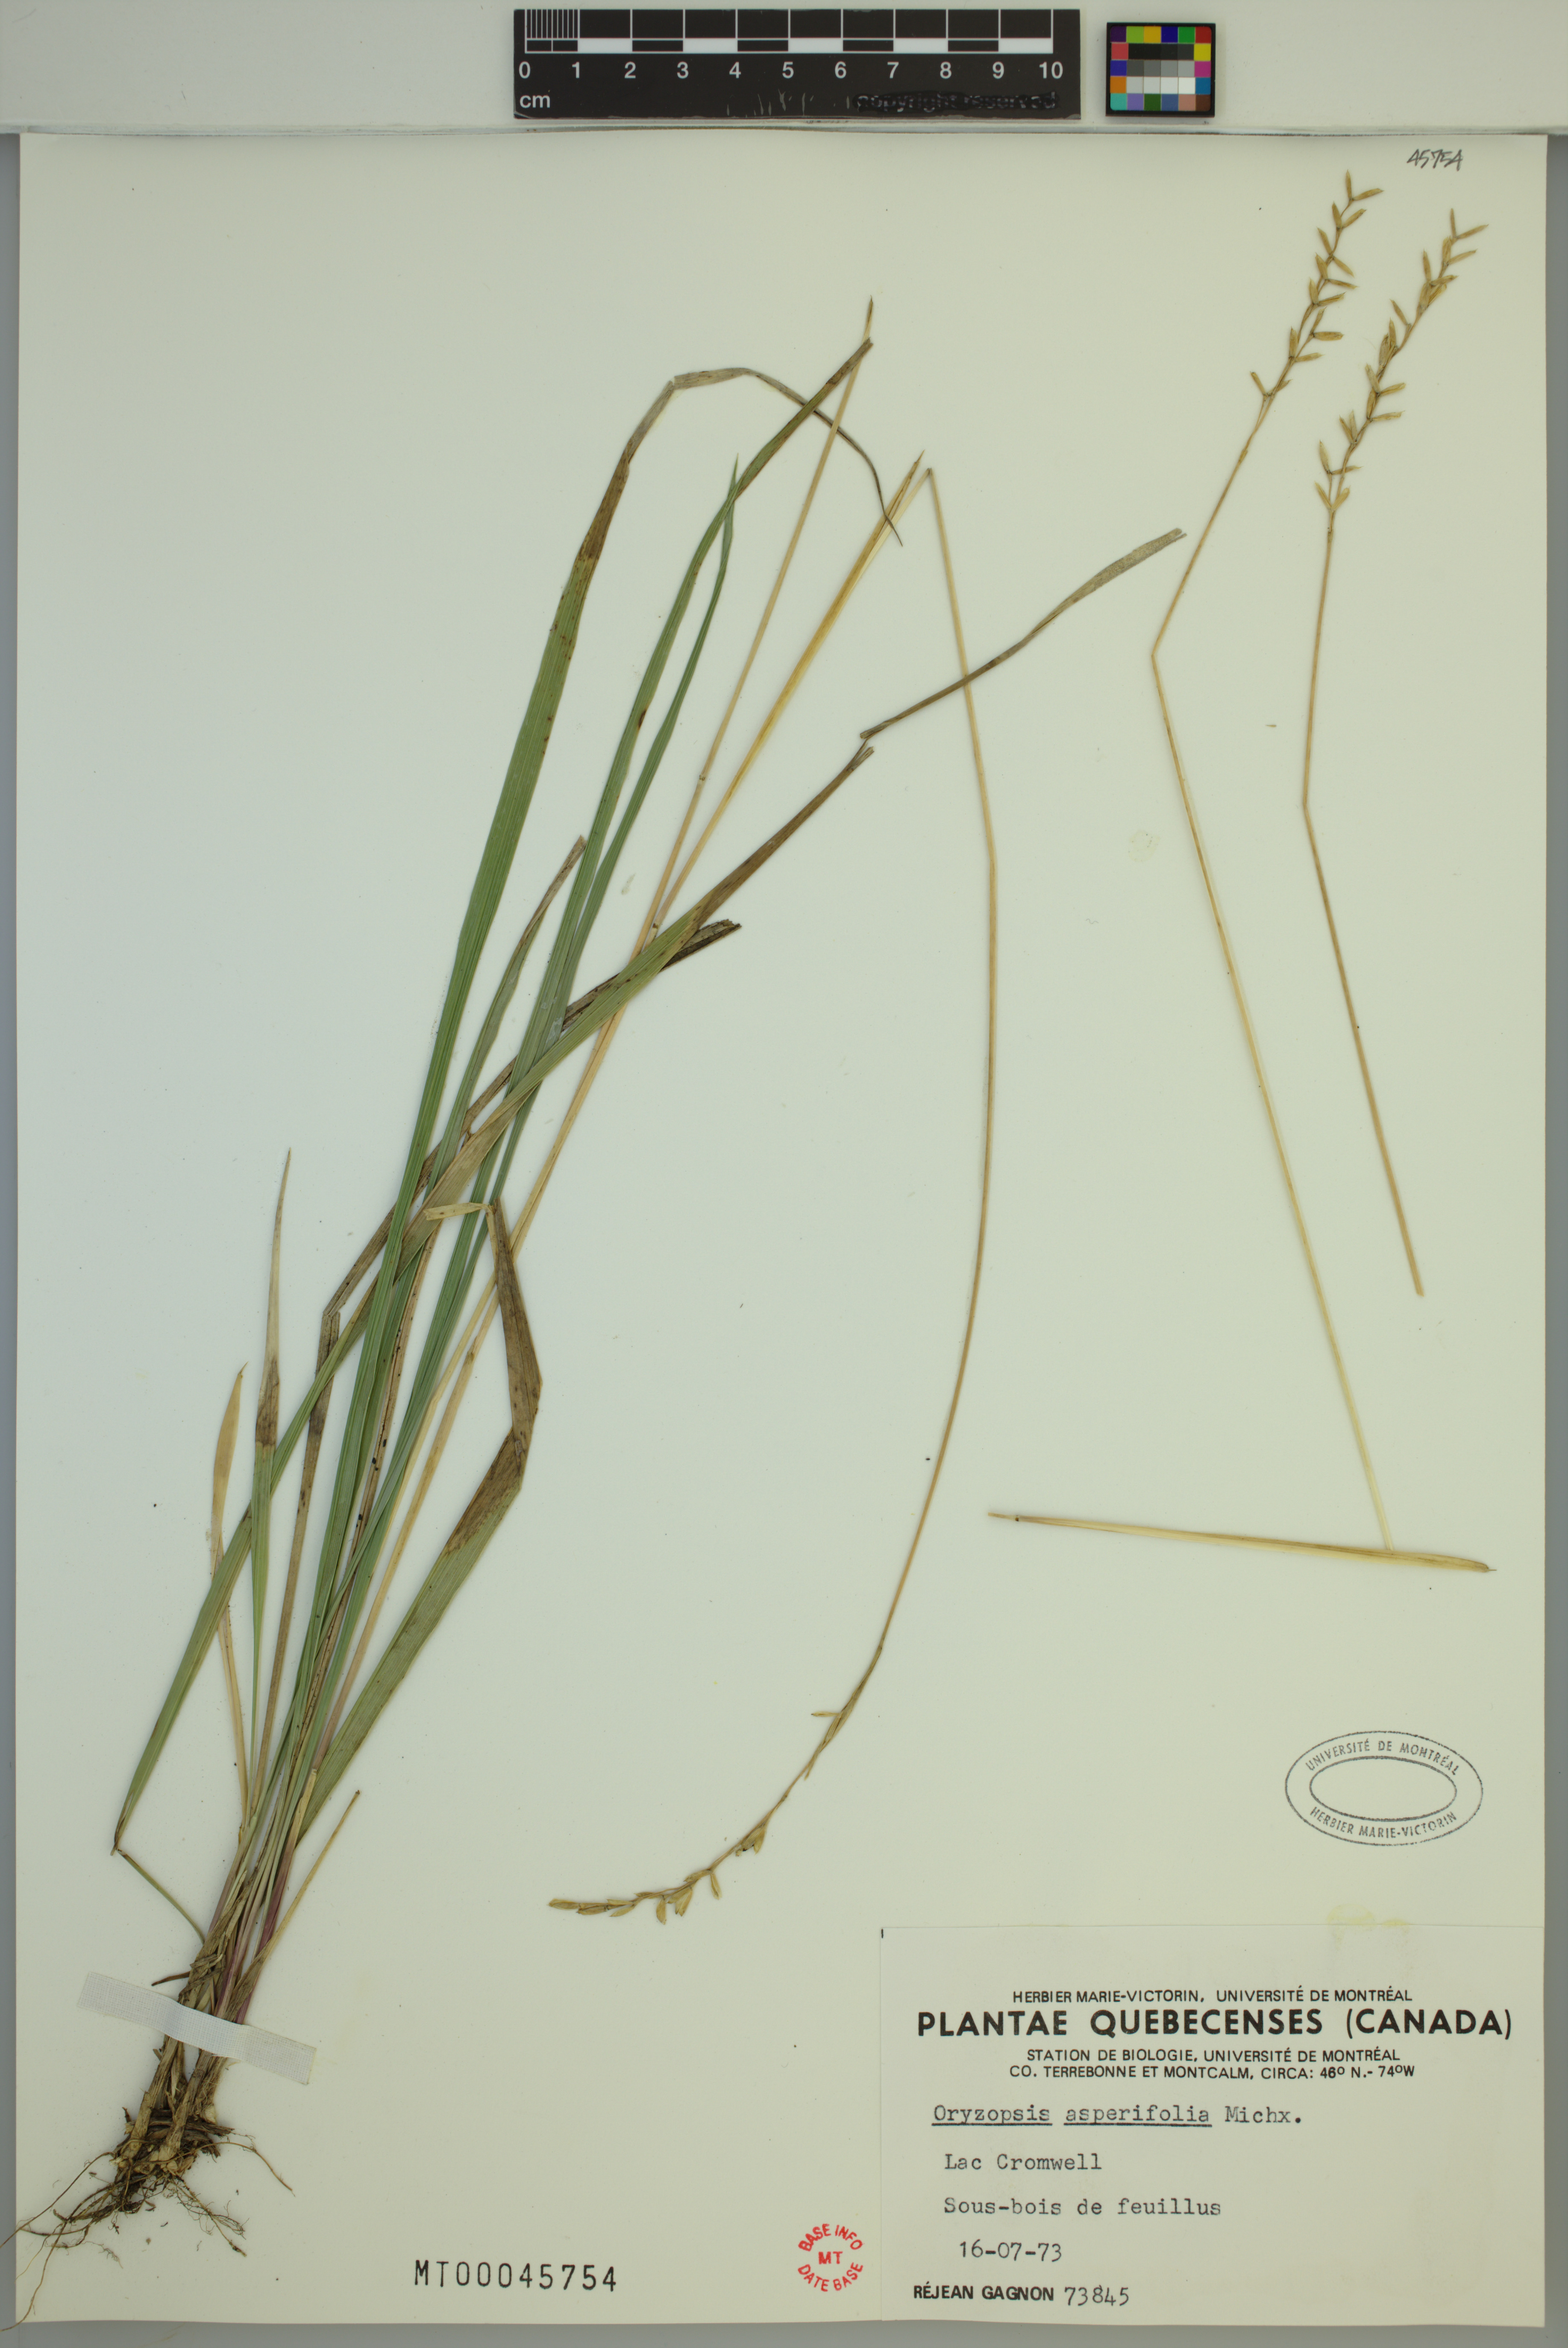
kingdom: Plantae
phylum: Tracheophyta
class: Liliopsida
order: Poales
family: Poaceae
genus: Oryzopsis
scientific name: Oryzopsis asperifolia
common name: Rough-leaved mountain rice
